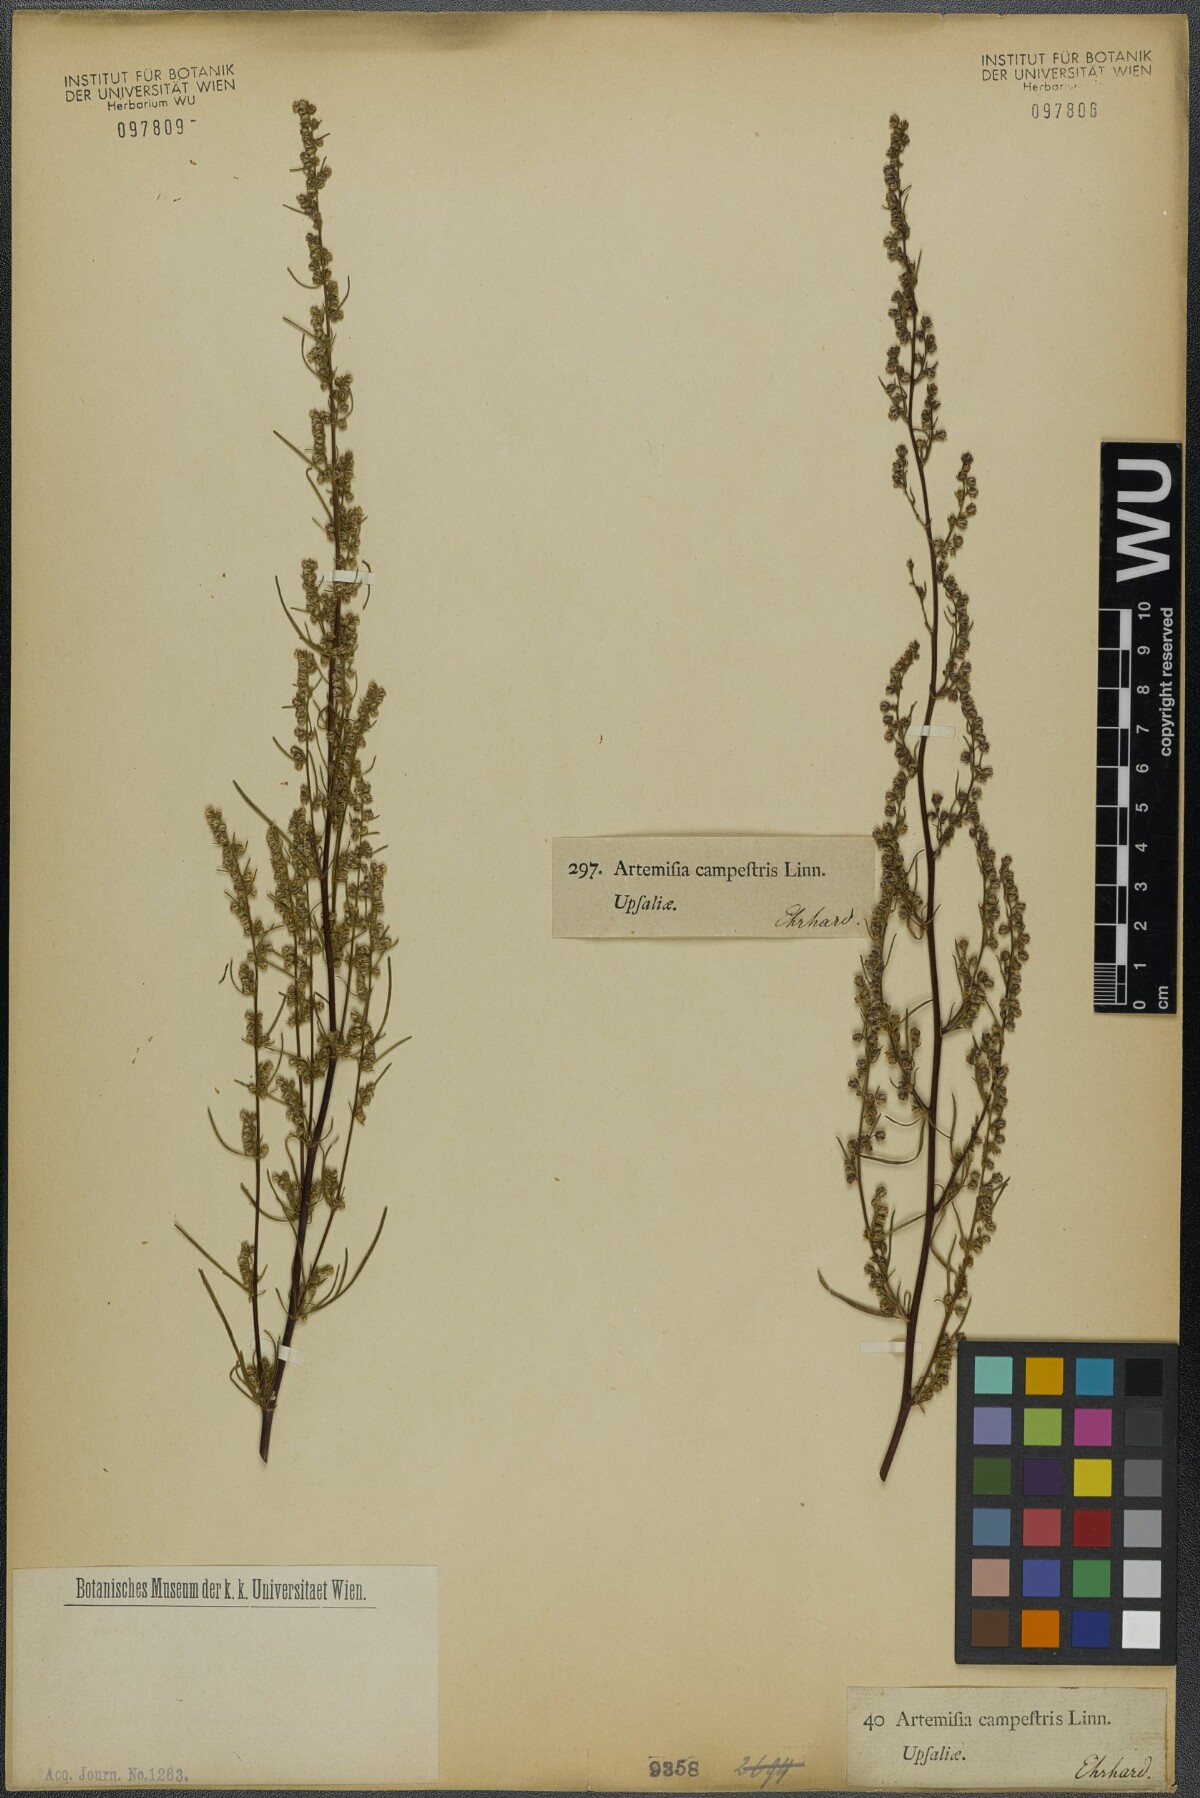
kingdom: Plantae
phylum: Tracheophyta
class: Magnoliopsida
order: Asterales
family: Asteraceae
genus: Artemisia
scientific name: Artemisia campestris
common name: Field wormwood
